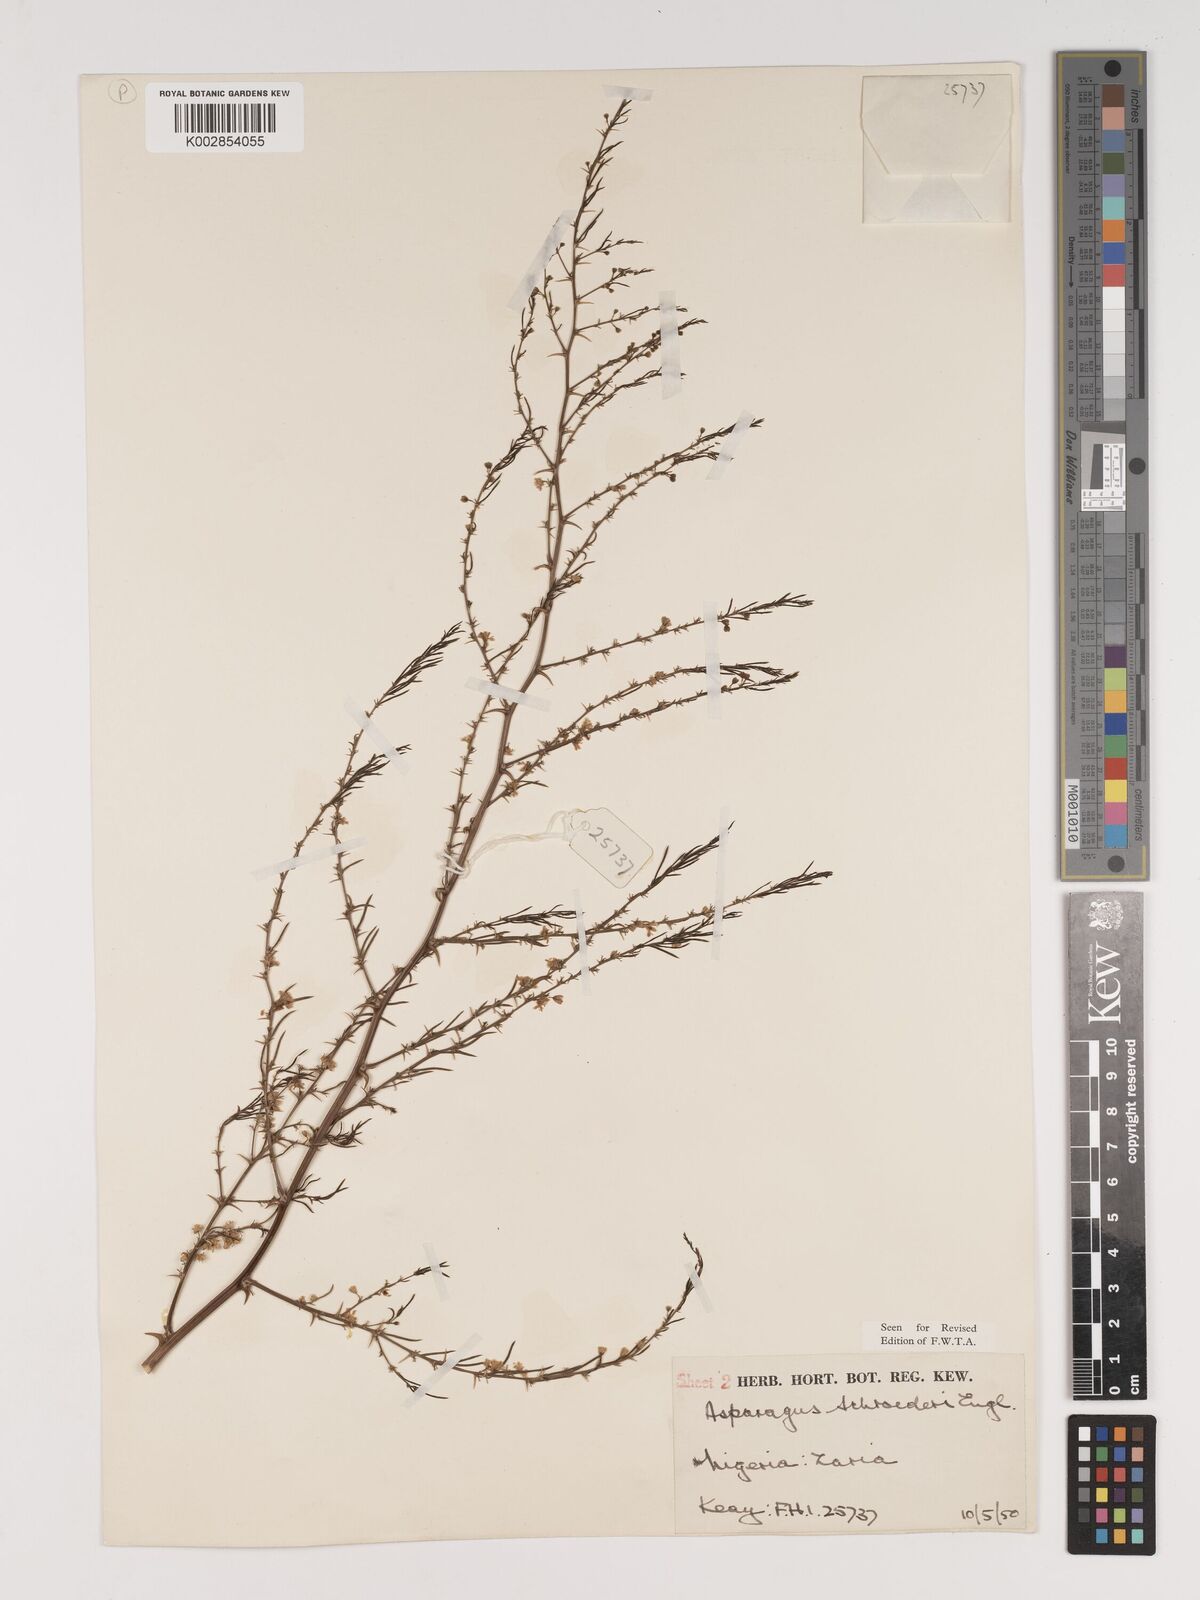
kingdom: Plantae
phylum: Tracheophyta
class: Liliopsida
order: Asparagales
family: Asparagaceae
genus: Asparagus
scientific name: Asparagus schroederi
